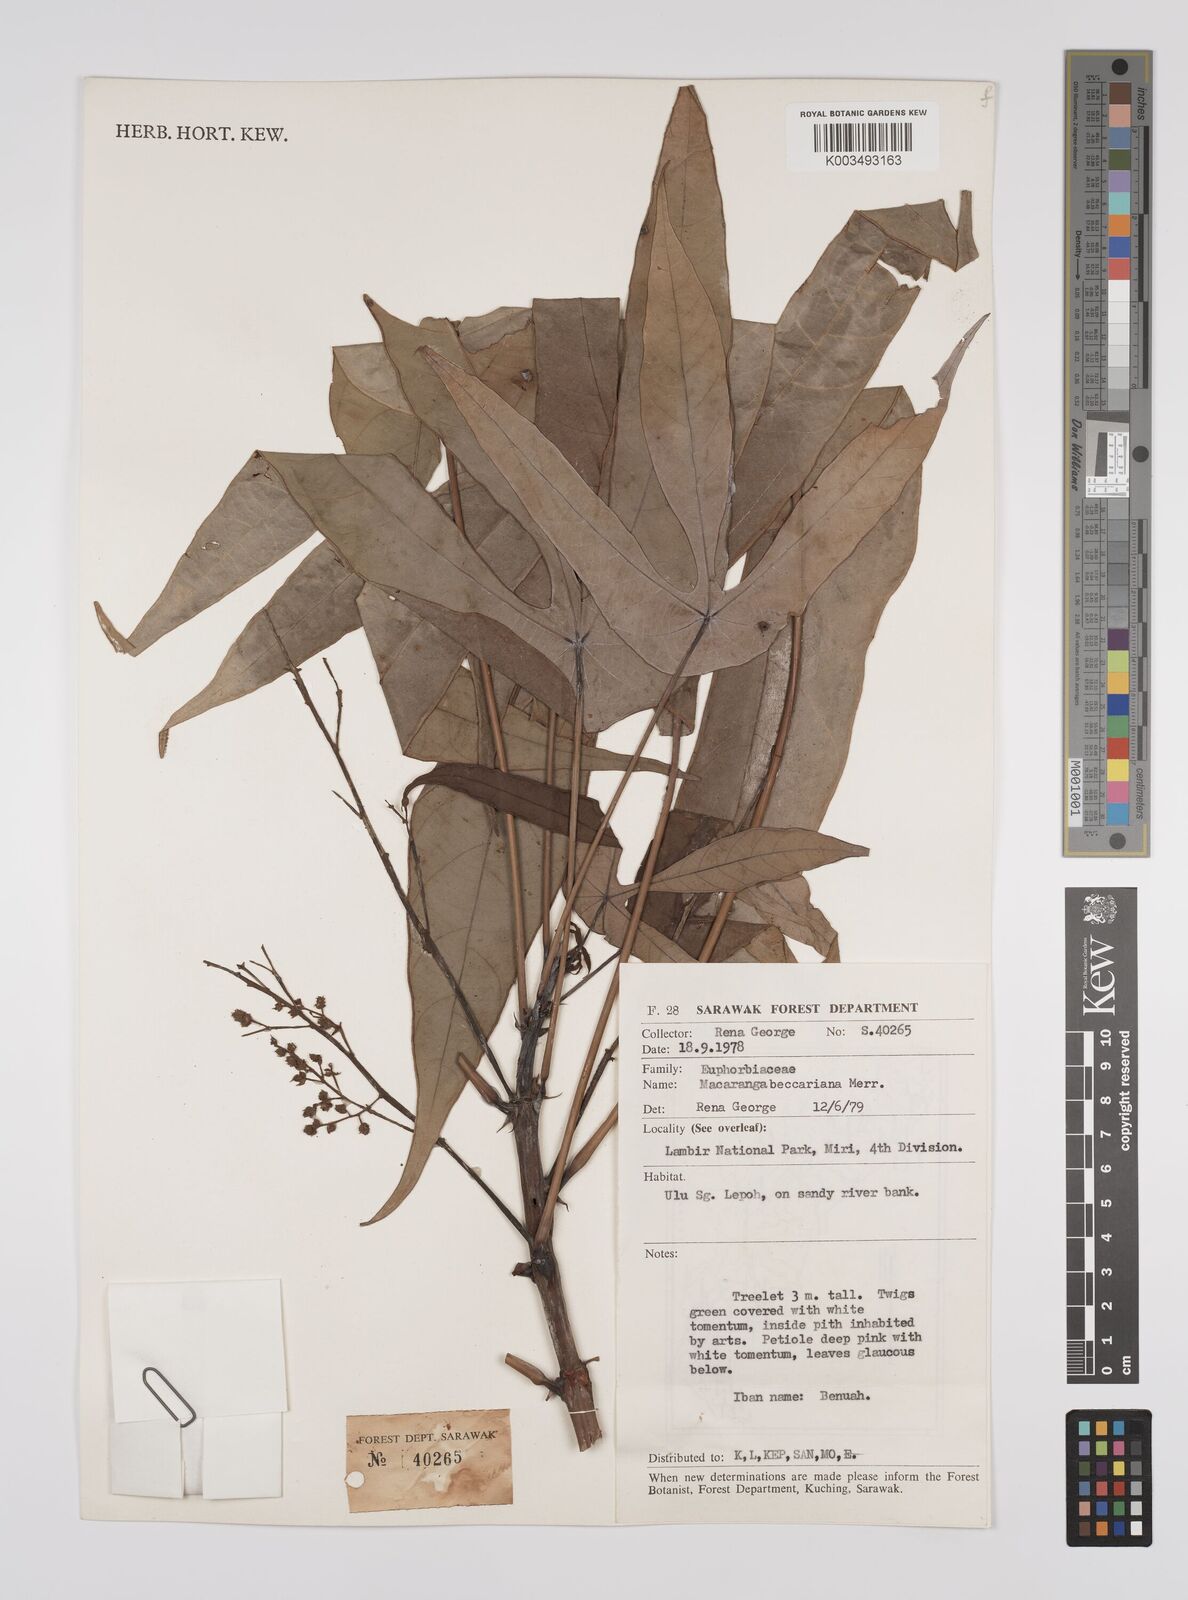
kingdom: Plantae
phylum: Tracheophyta
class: Magnoliopsida
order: Malpighiales
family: Euphorbiaceae
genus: Macaranga
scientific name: Macaranga beccariana
